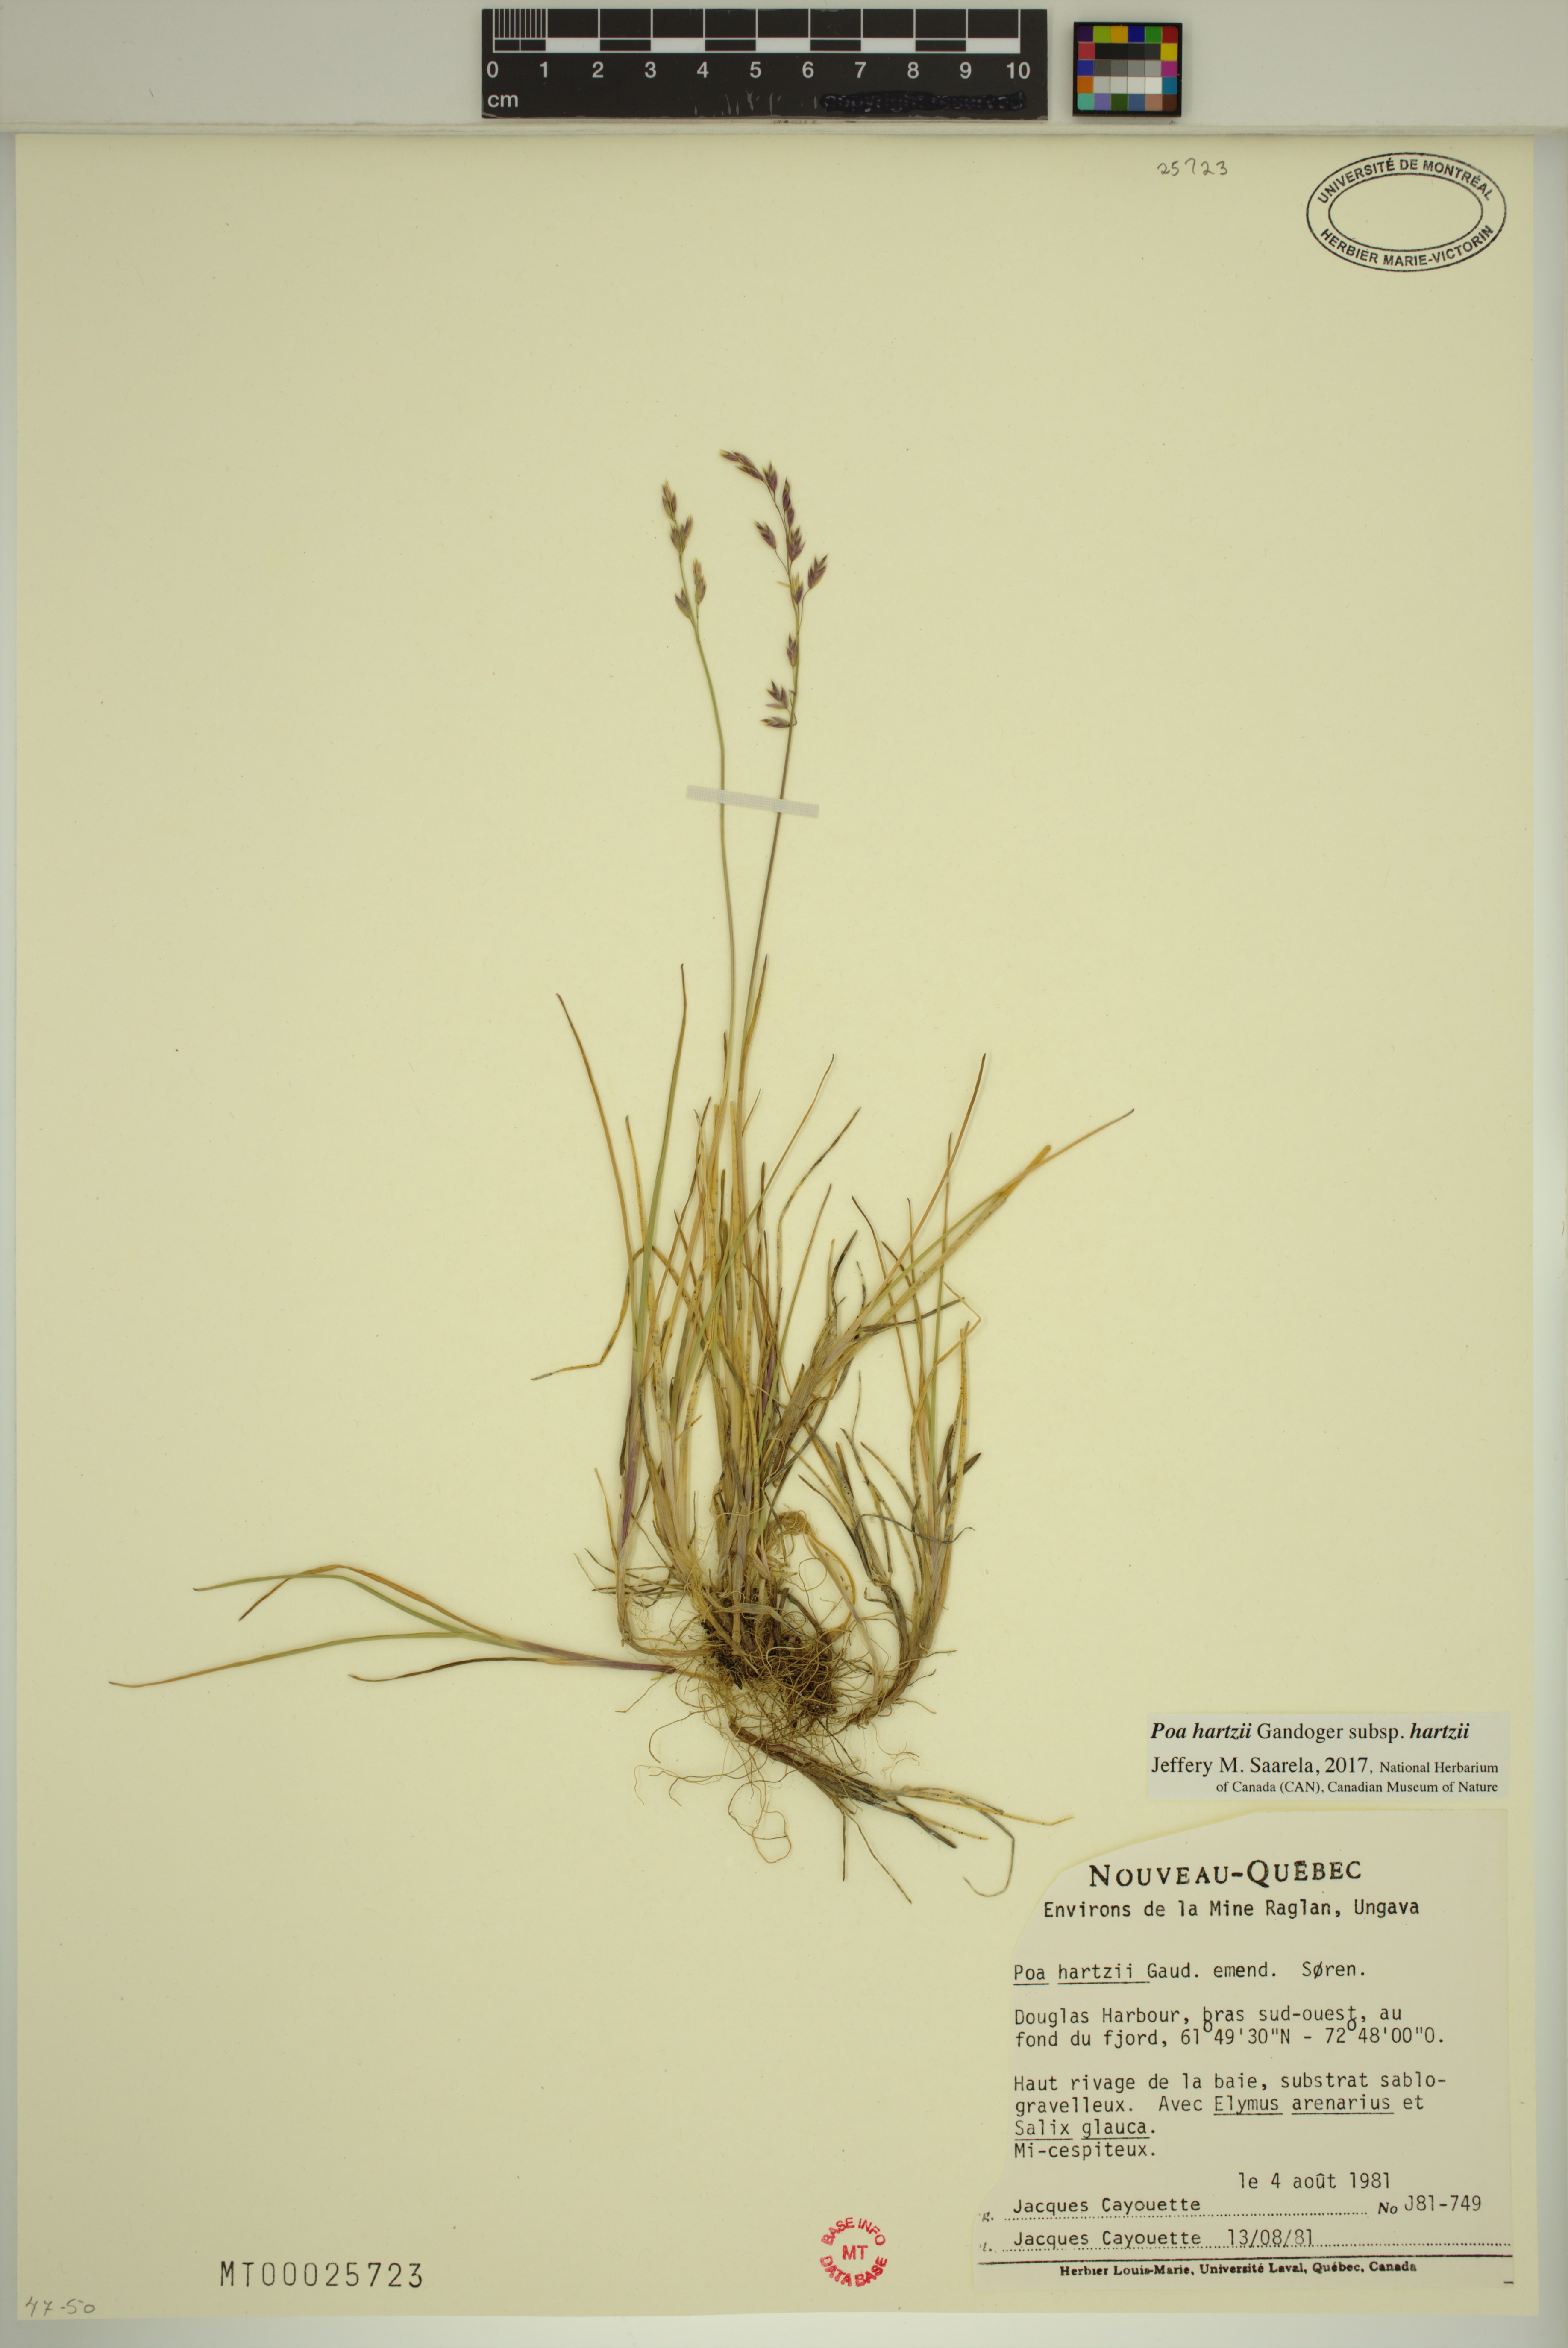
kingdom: Plantae
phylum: Tracheophyta
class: Liliopsida
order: Poales
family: Poaceae
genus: Poa
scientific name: Poa hartzii
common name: Hartz's bluegrass
